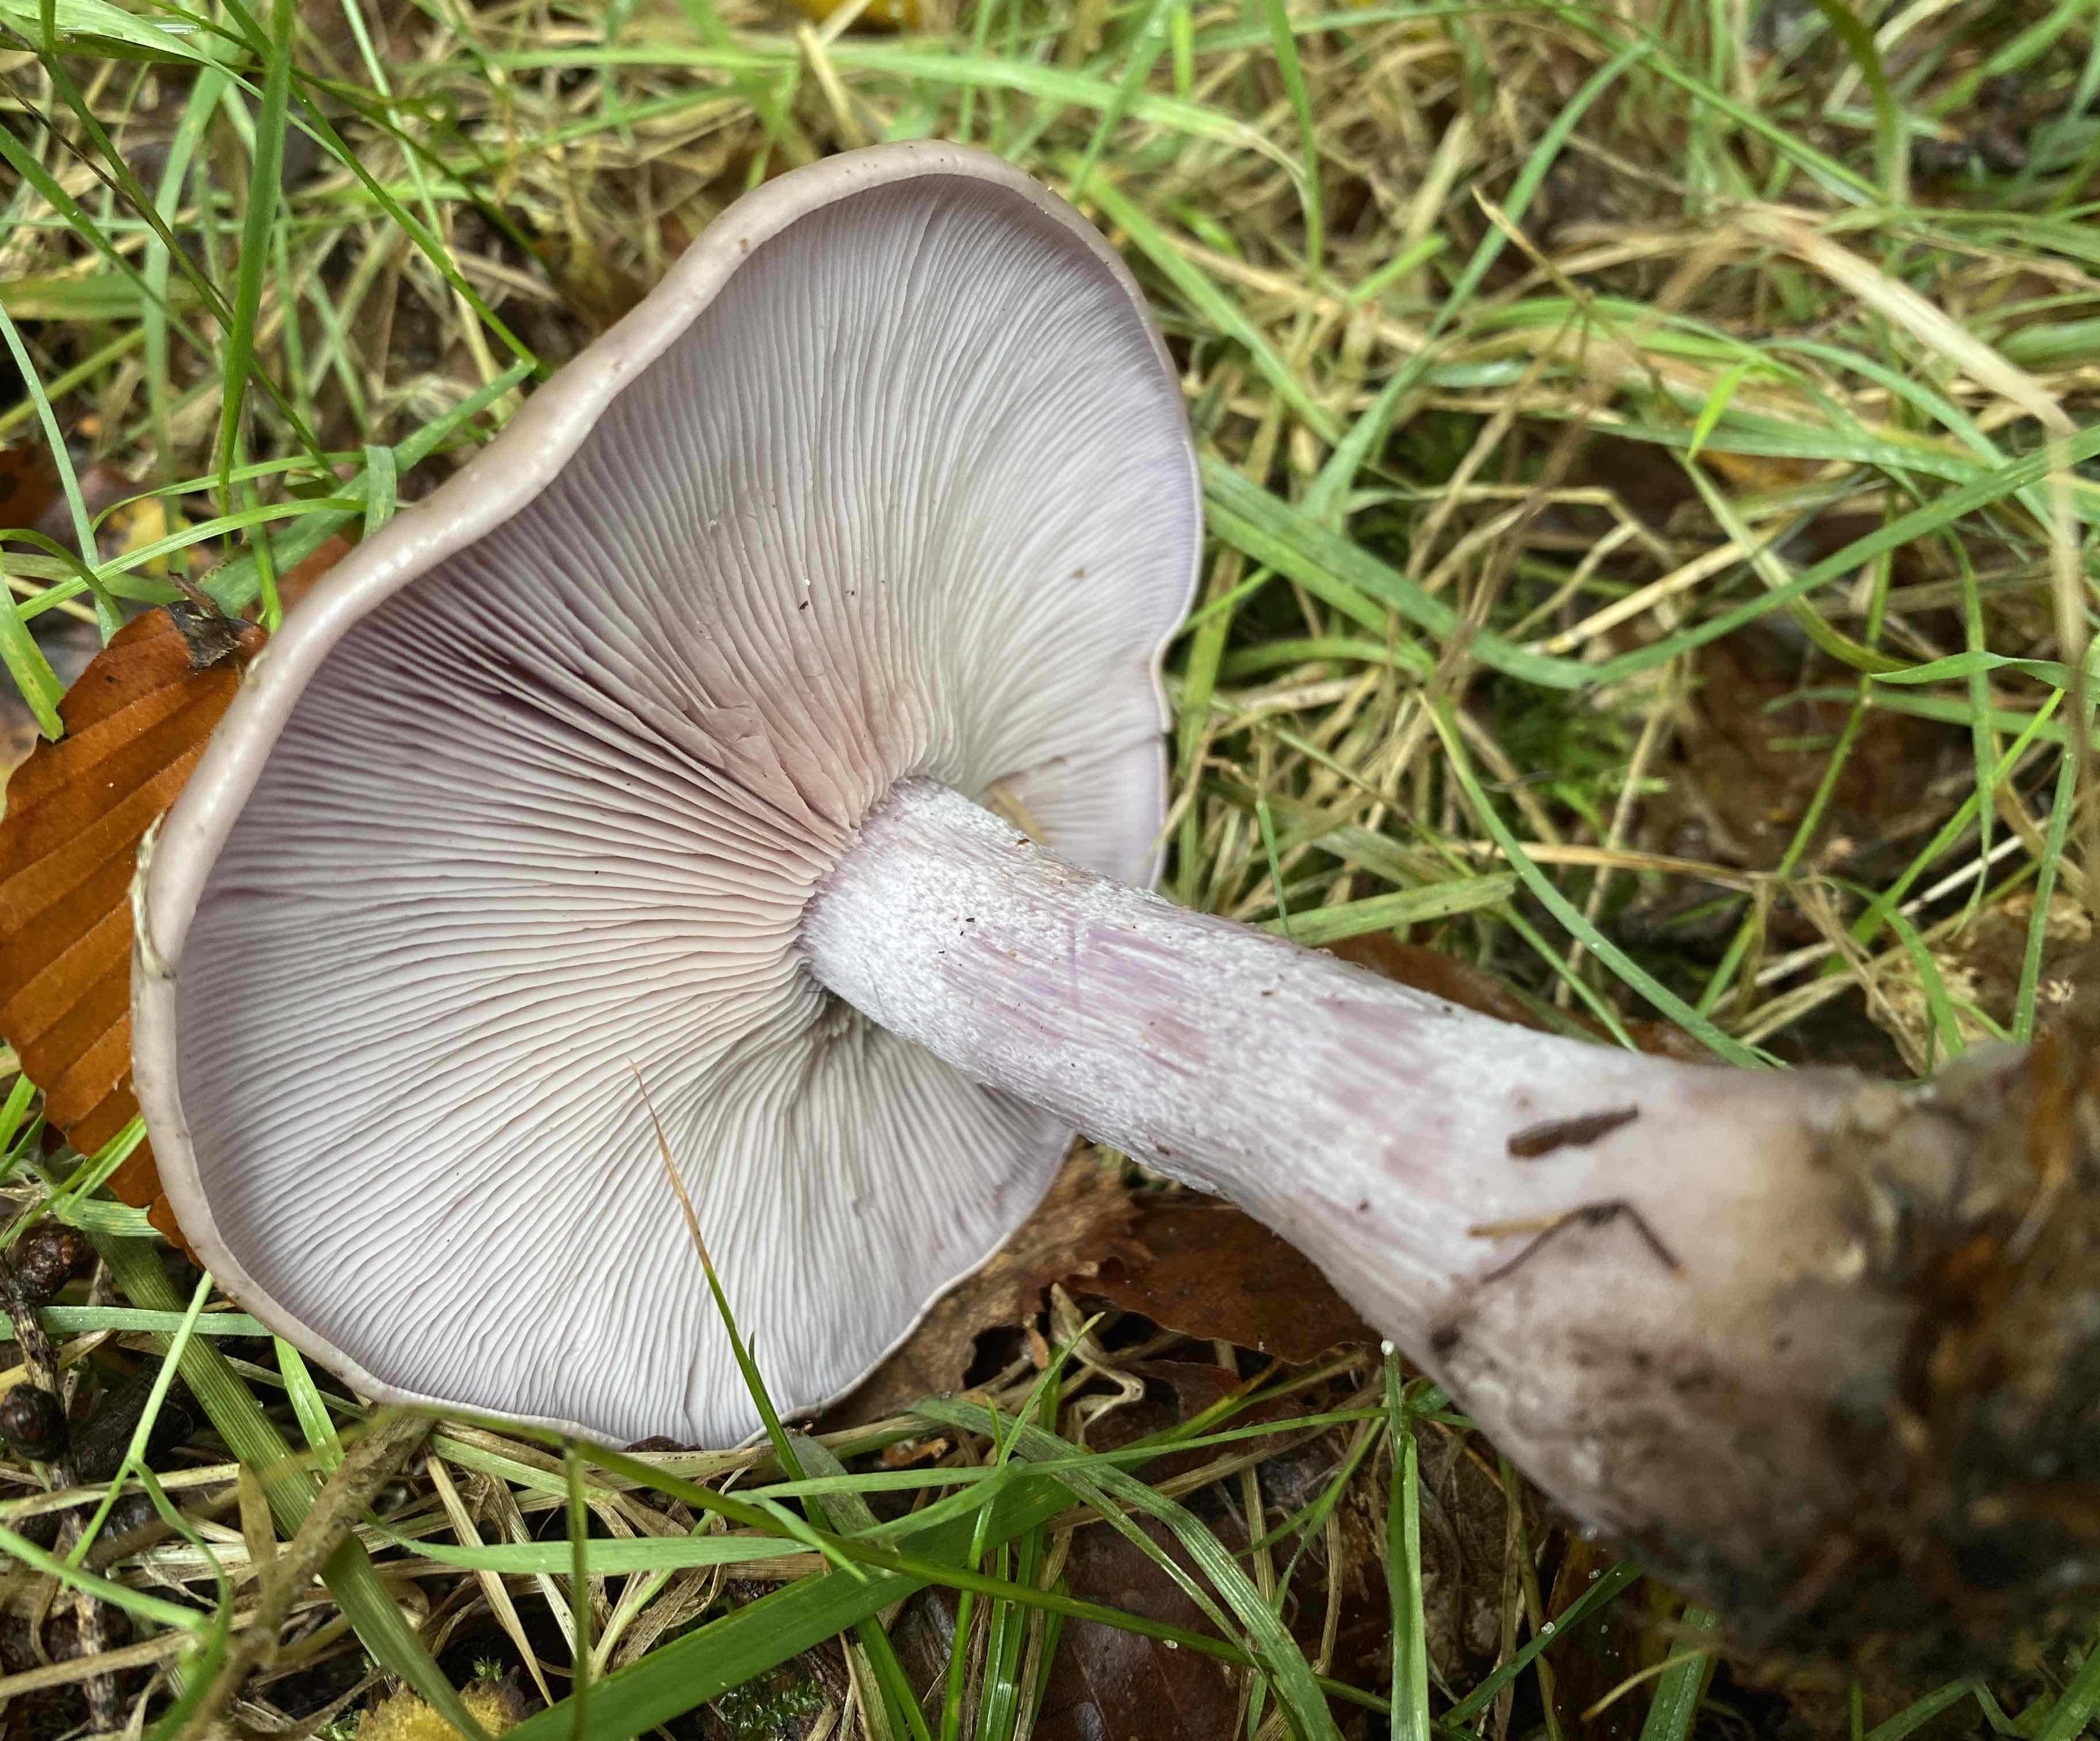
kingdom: Fungi
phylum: Basidiomycota
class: Agaricomycetes
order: Agaricales
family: Tricholomataceae
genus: Lepista
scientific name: Lepista nuda
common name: violet hekseringshat
